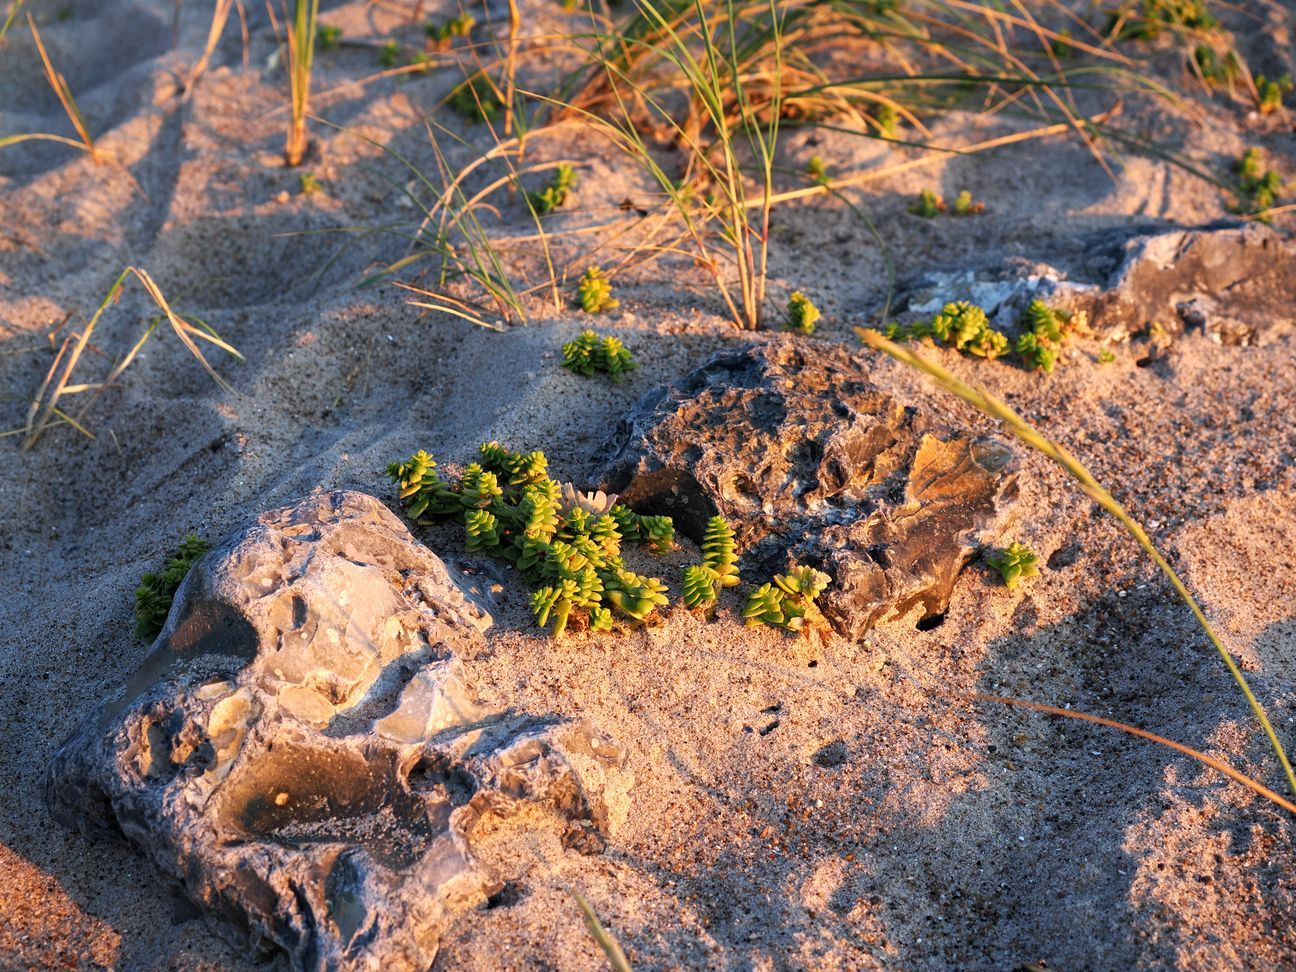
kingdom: Plantae
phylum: Tracheophyta
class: Magnoliopsida
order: Caryophyllales
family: Caryophyllaceae
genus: Honckenya
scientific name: Honckenya peploides
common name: Strandarve
